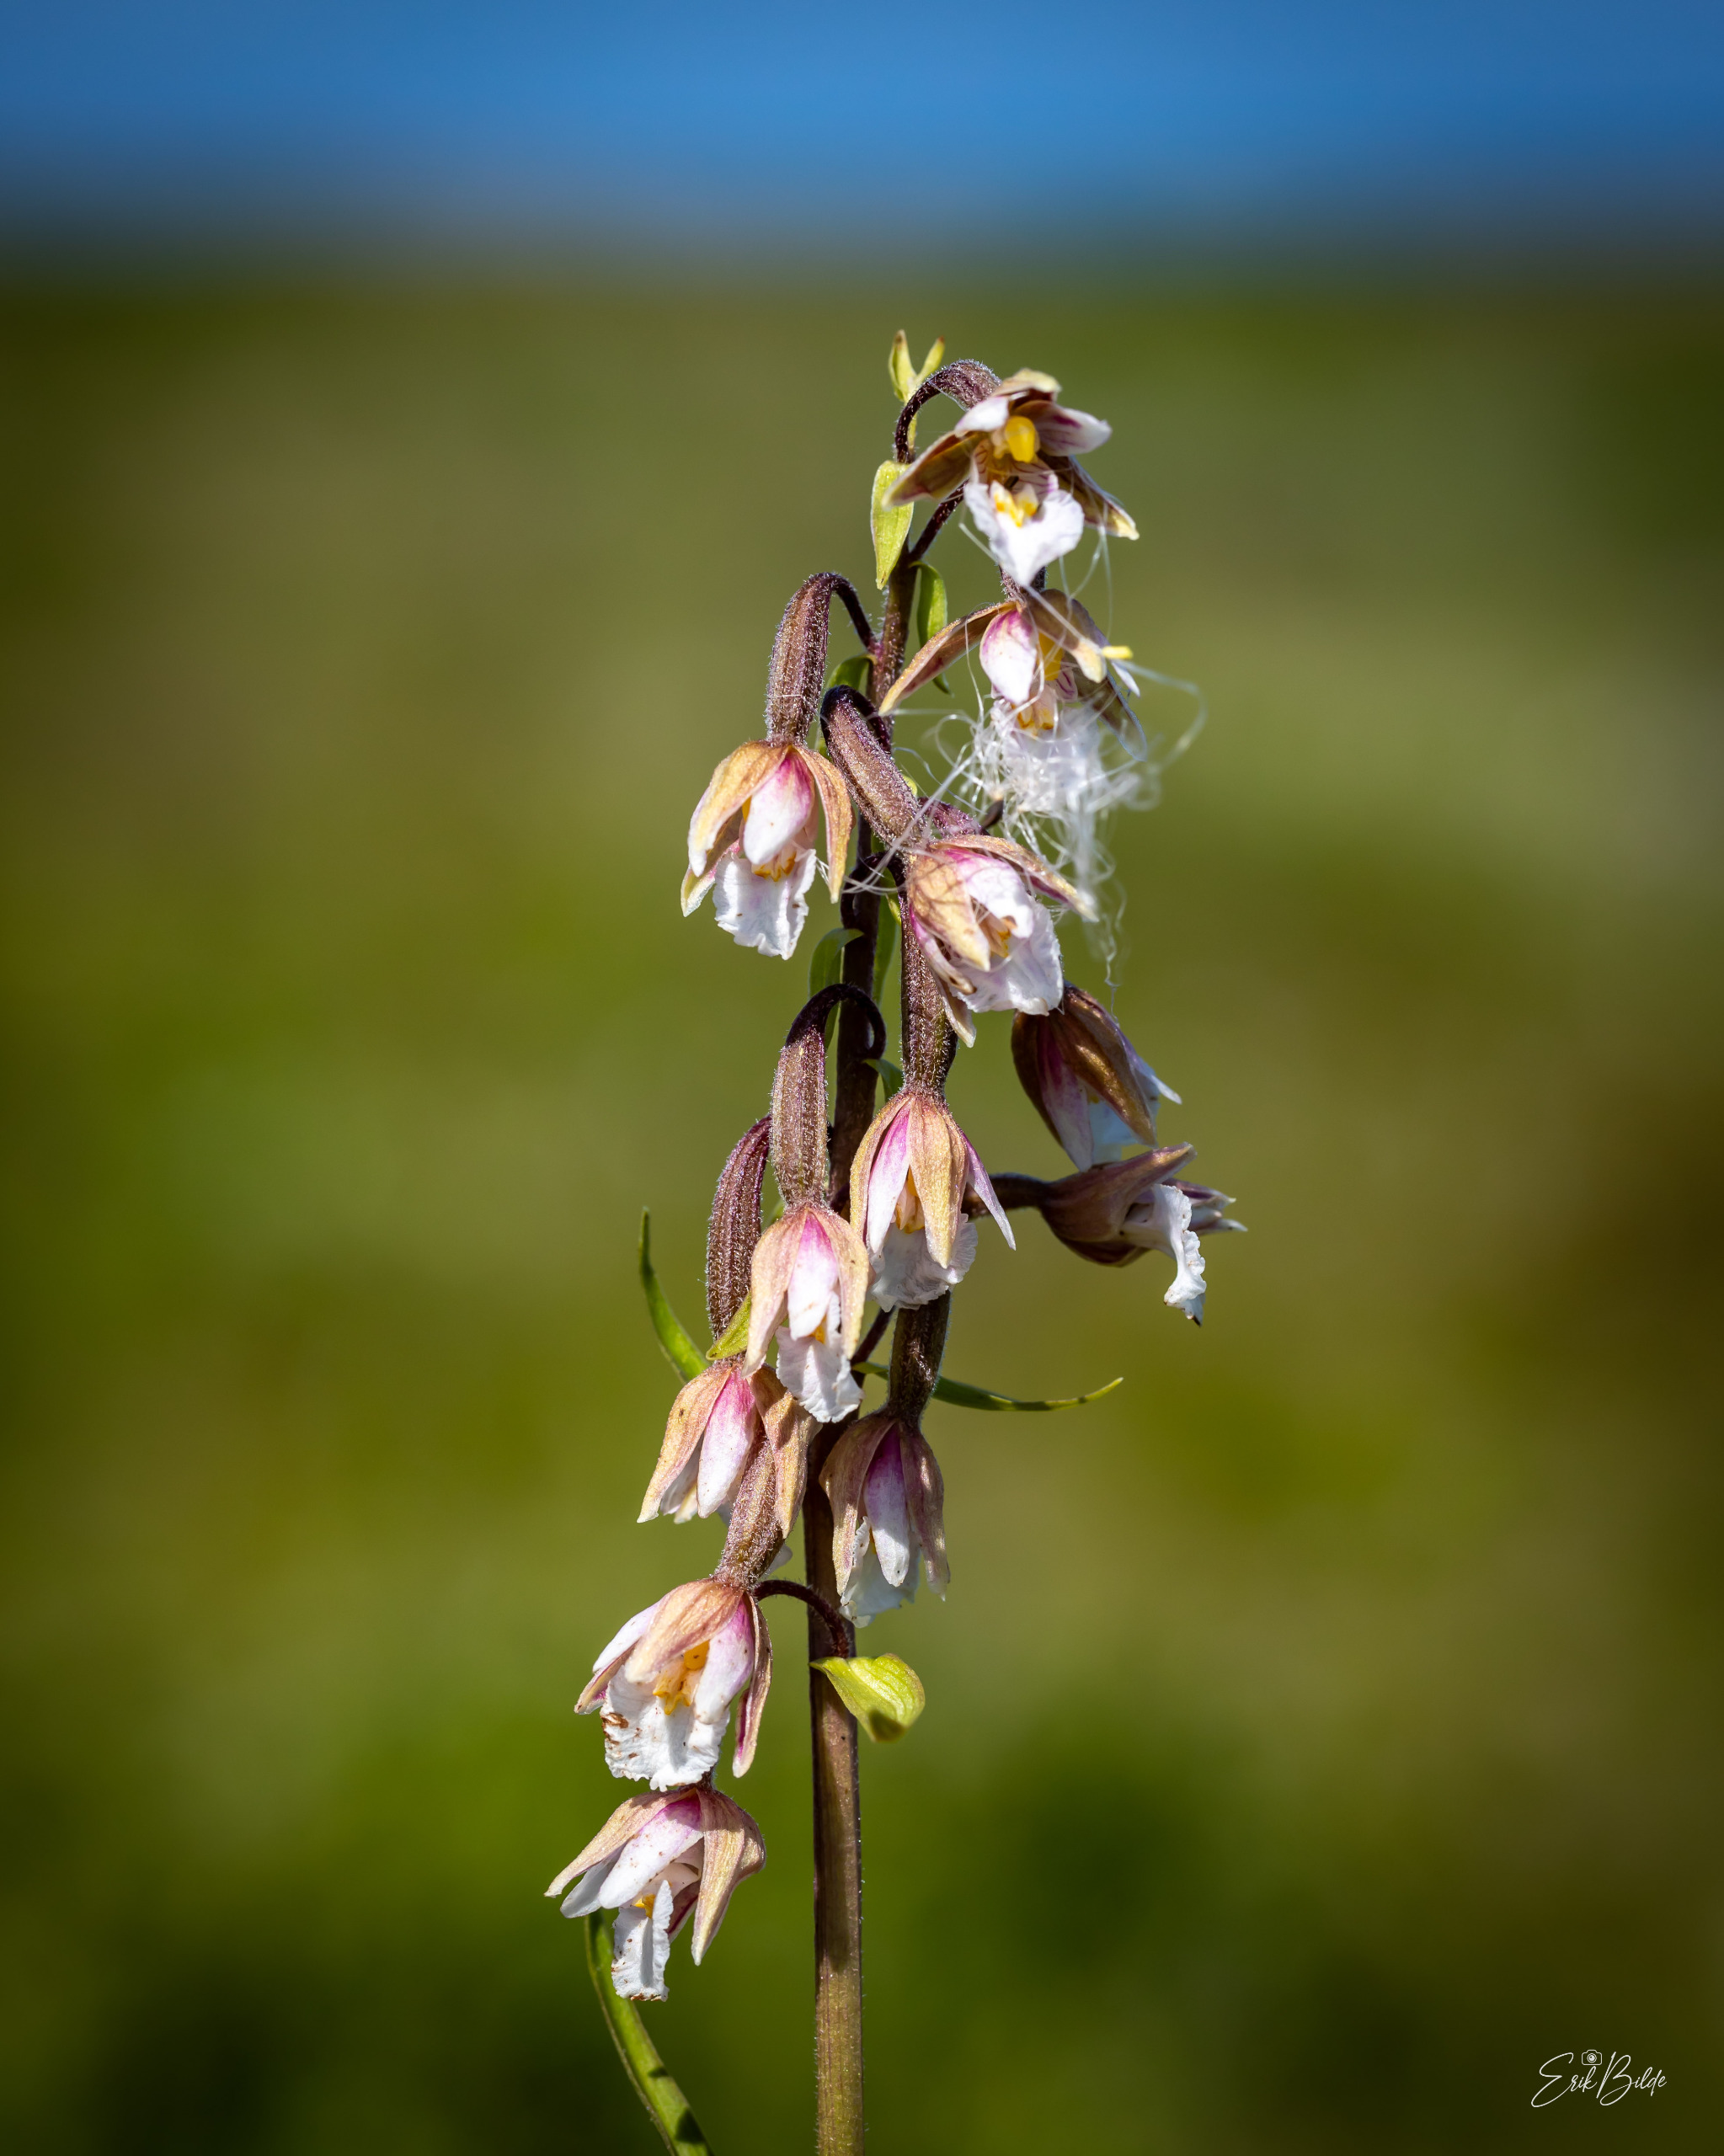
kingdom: Plantae
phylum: Tracheophyta
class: Liliopsida
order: Asparagales
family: Orchidaceae
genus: Epipactis
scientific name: Epipactis palustris
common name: Sump-hullæbe
